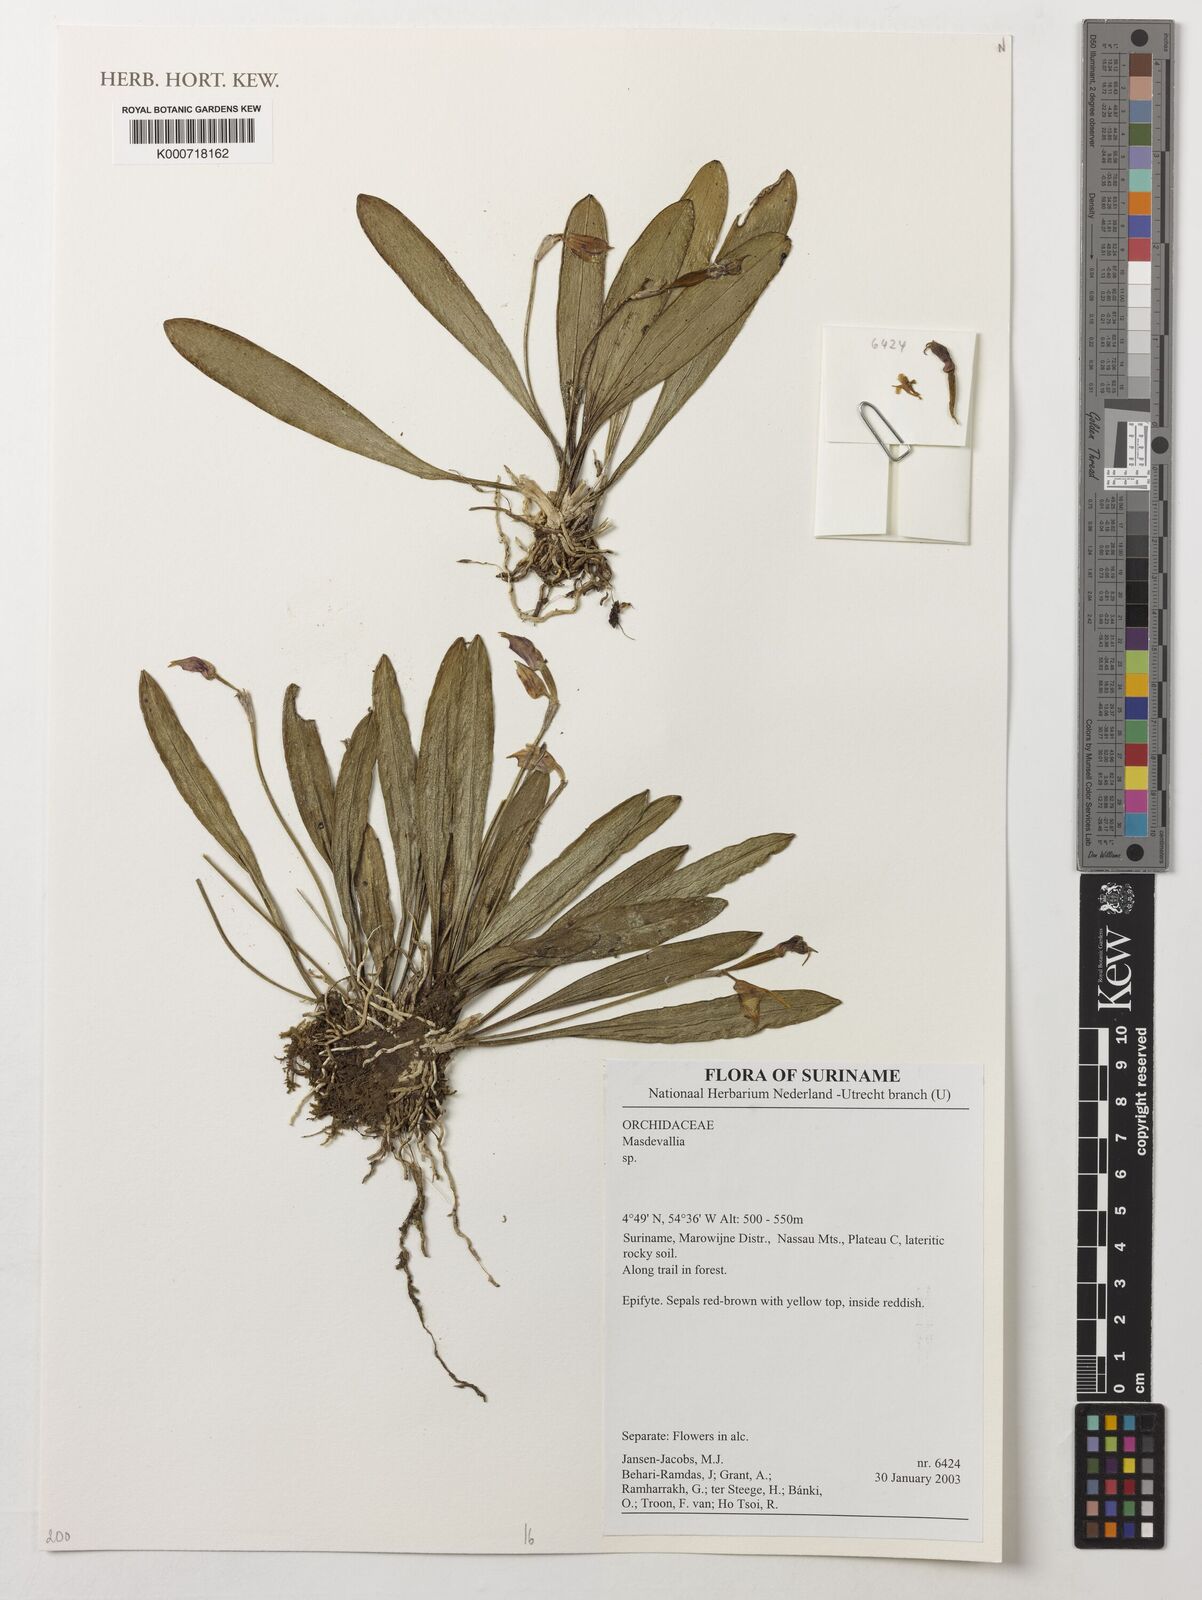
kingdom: Plantae
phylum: Tracheophyta
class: Liliopsida
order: Asparagales
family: Orchidaceae
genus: Masdevallia
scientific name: Masdevallia
